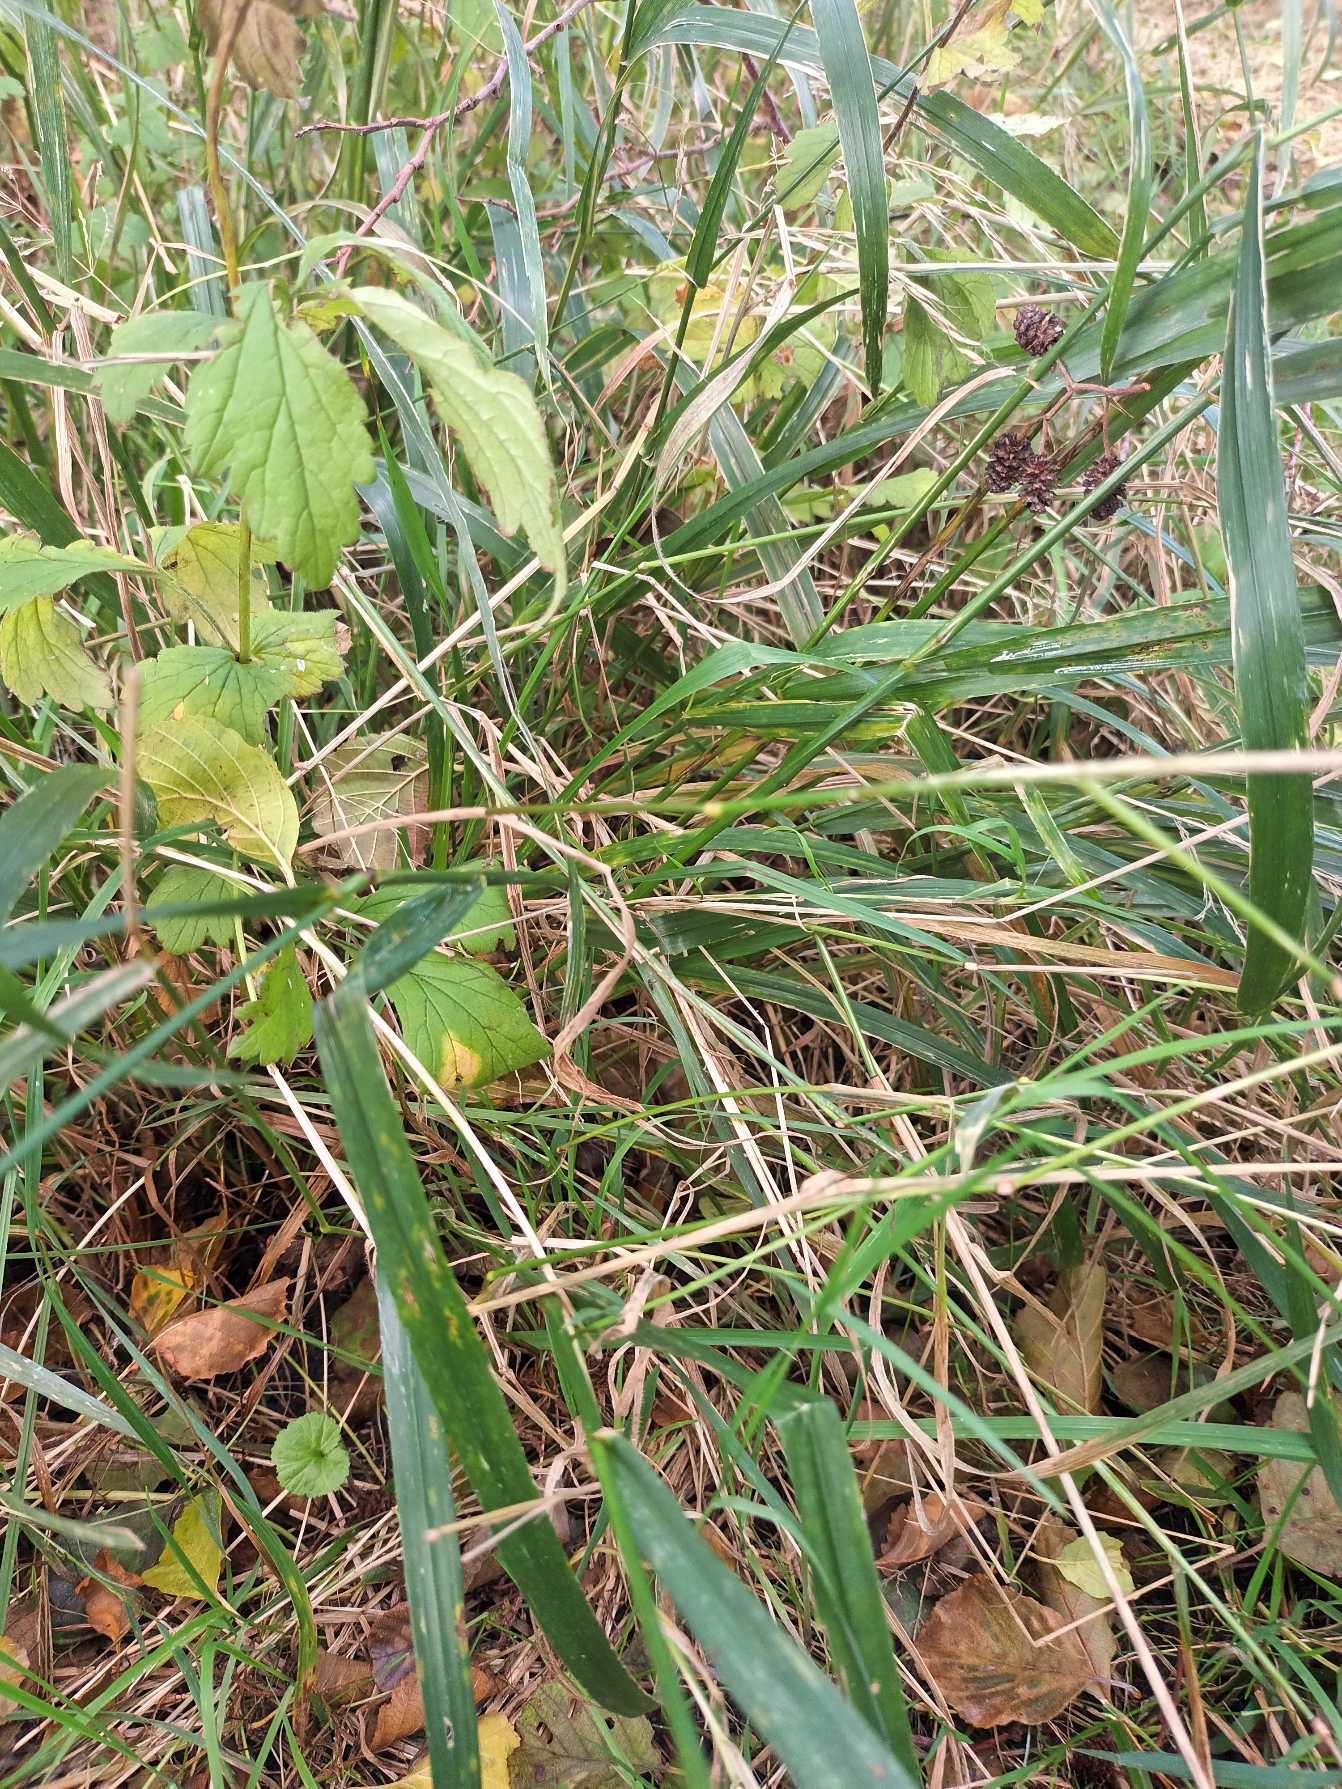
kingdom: Plantae
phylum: Tracheophyta
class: Liliopsida
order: Poales
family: Poaceae
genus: Lolium
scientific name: Lolium giganteum
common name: Kæmpe-svingel
